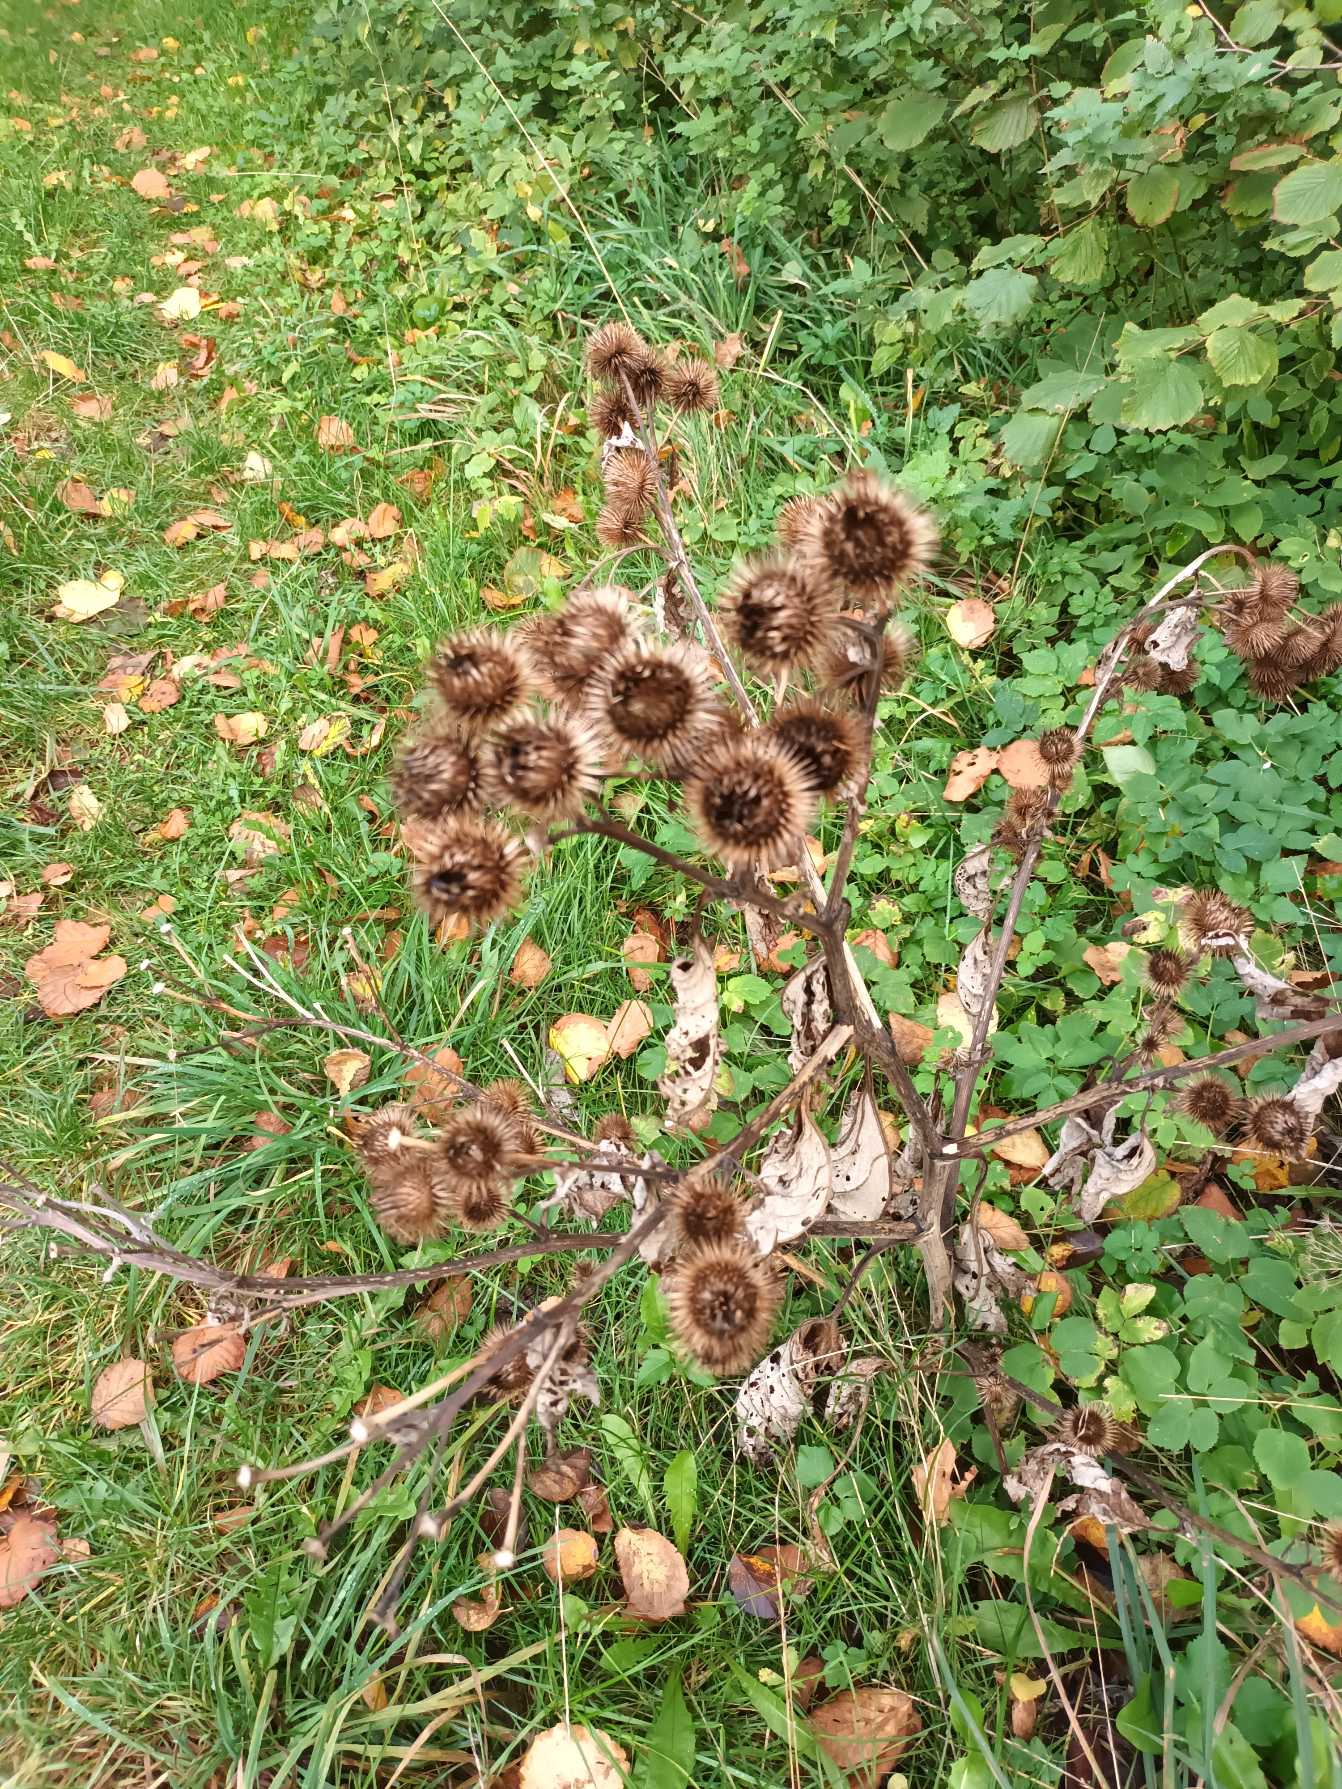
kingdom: Plantae
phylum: Tracheophyta
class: Magnoliopsida
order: Asterales
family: Asteraceae
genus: Arctium
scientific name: Arctium lappa
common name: Glat burre
